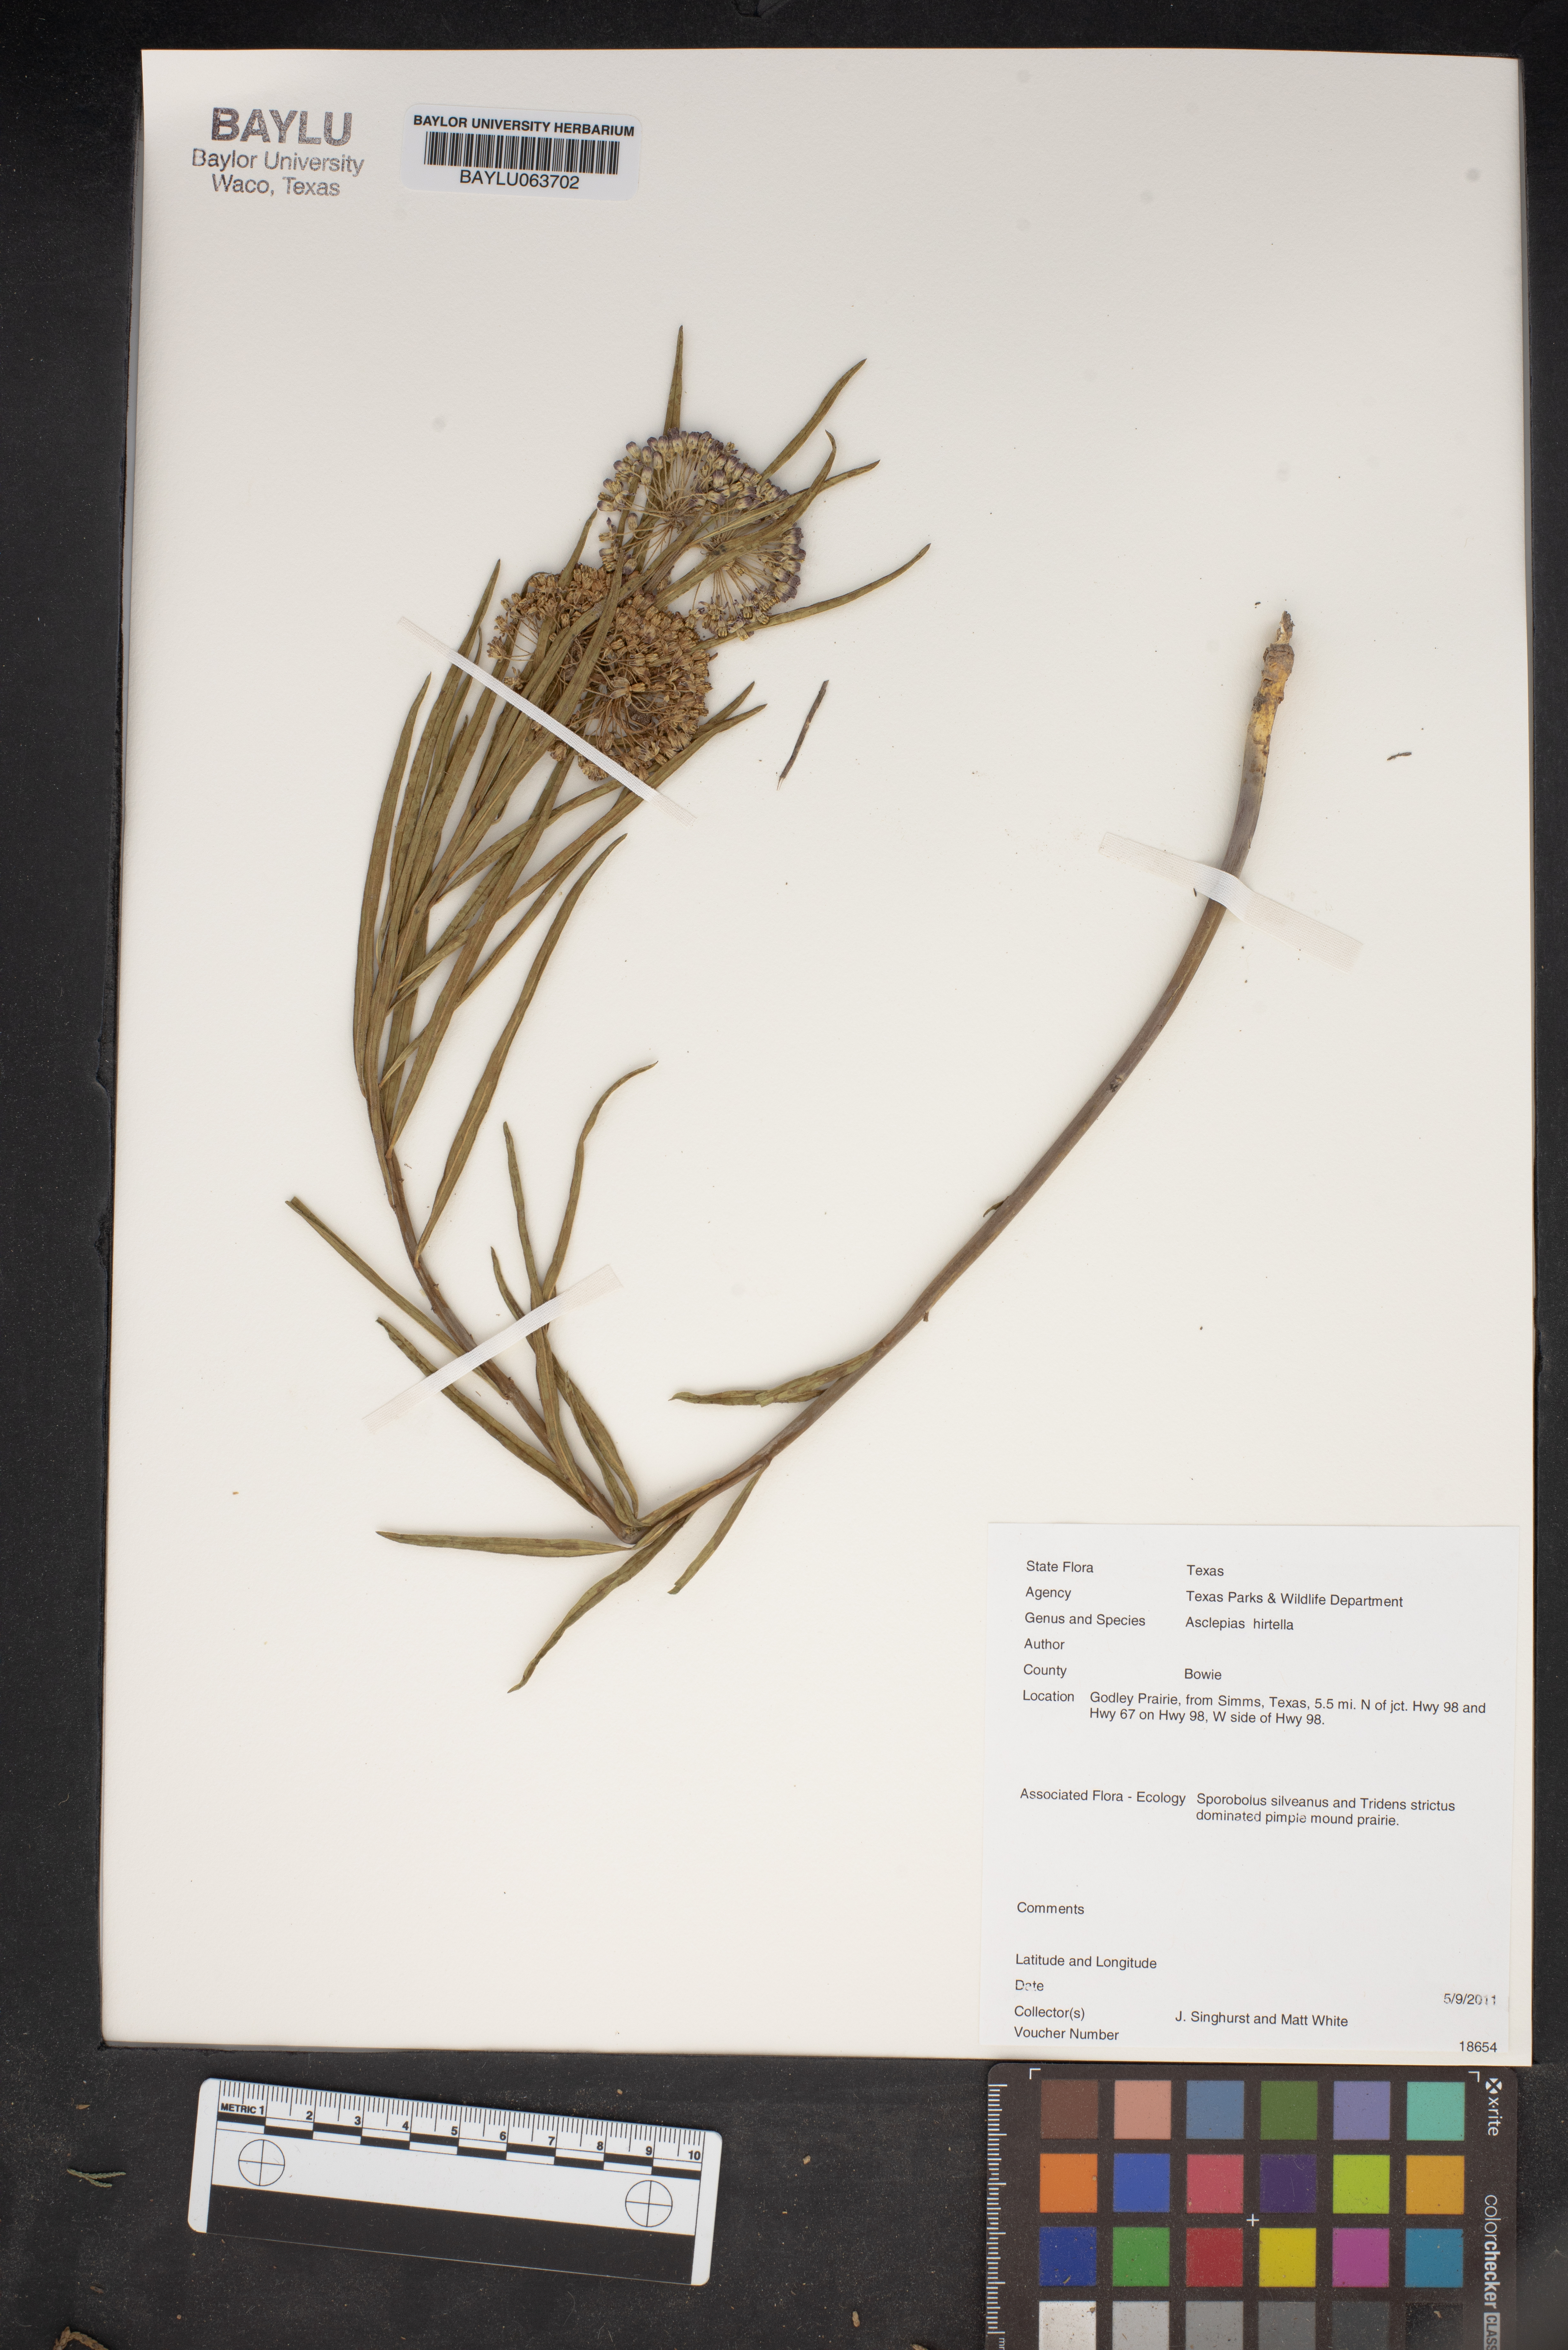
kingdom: Plantae
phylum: Tracheophyta
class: Magnoliopsida
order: Gentianales
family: Apocynaceae
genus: Asclepias
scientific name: Asclepias hirtella
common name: Prairie milkweed
